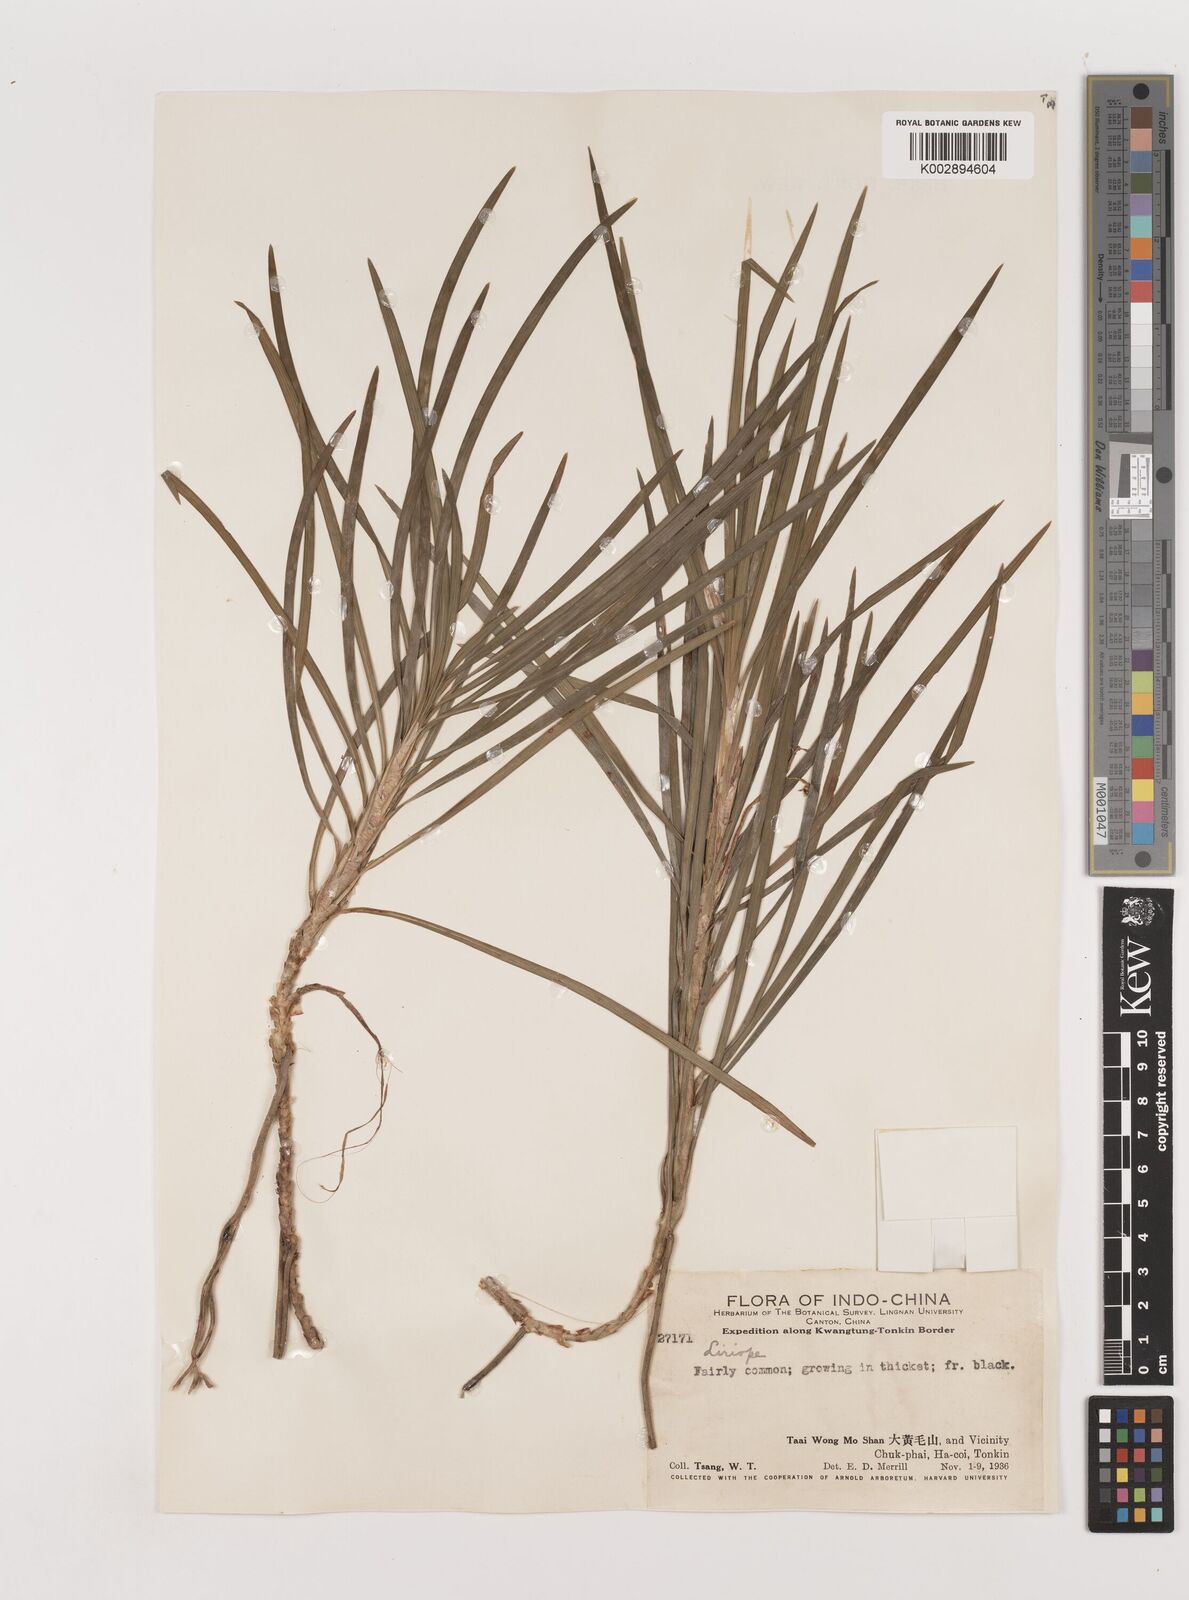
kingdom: Plantae
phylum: Tracheophyta
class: Liliopsida
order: Asparagales
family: Asparagaceae
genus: Liriope
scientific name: Liriope
